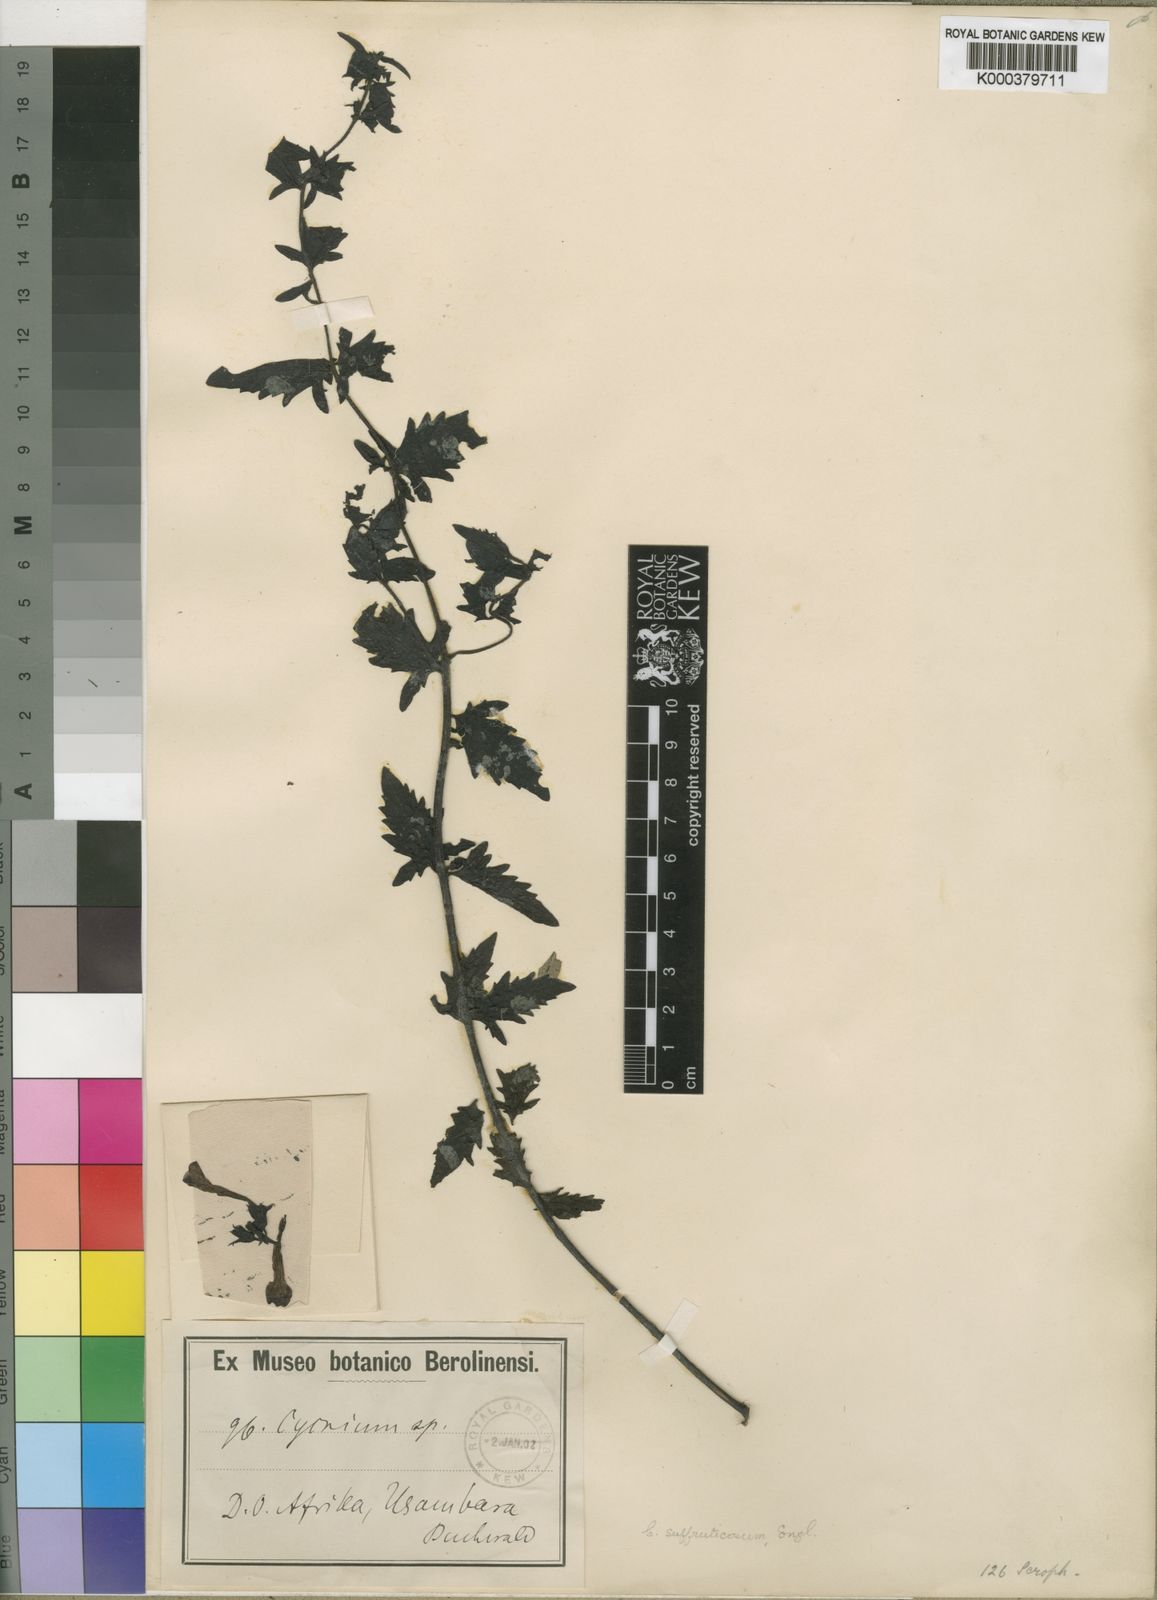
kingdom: Plantae
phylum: Tracheophyta
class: Magnoliopsida
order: Lamiales
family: Orobanchaceae
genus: Cycnium
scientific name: Cycnium veronicifolium
